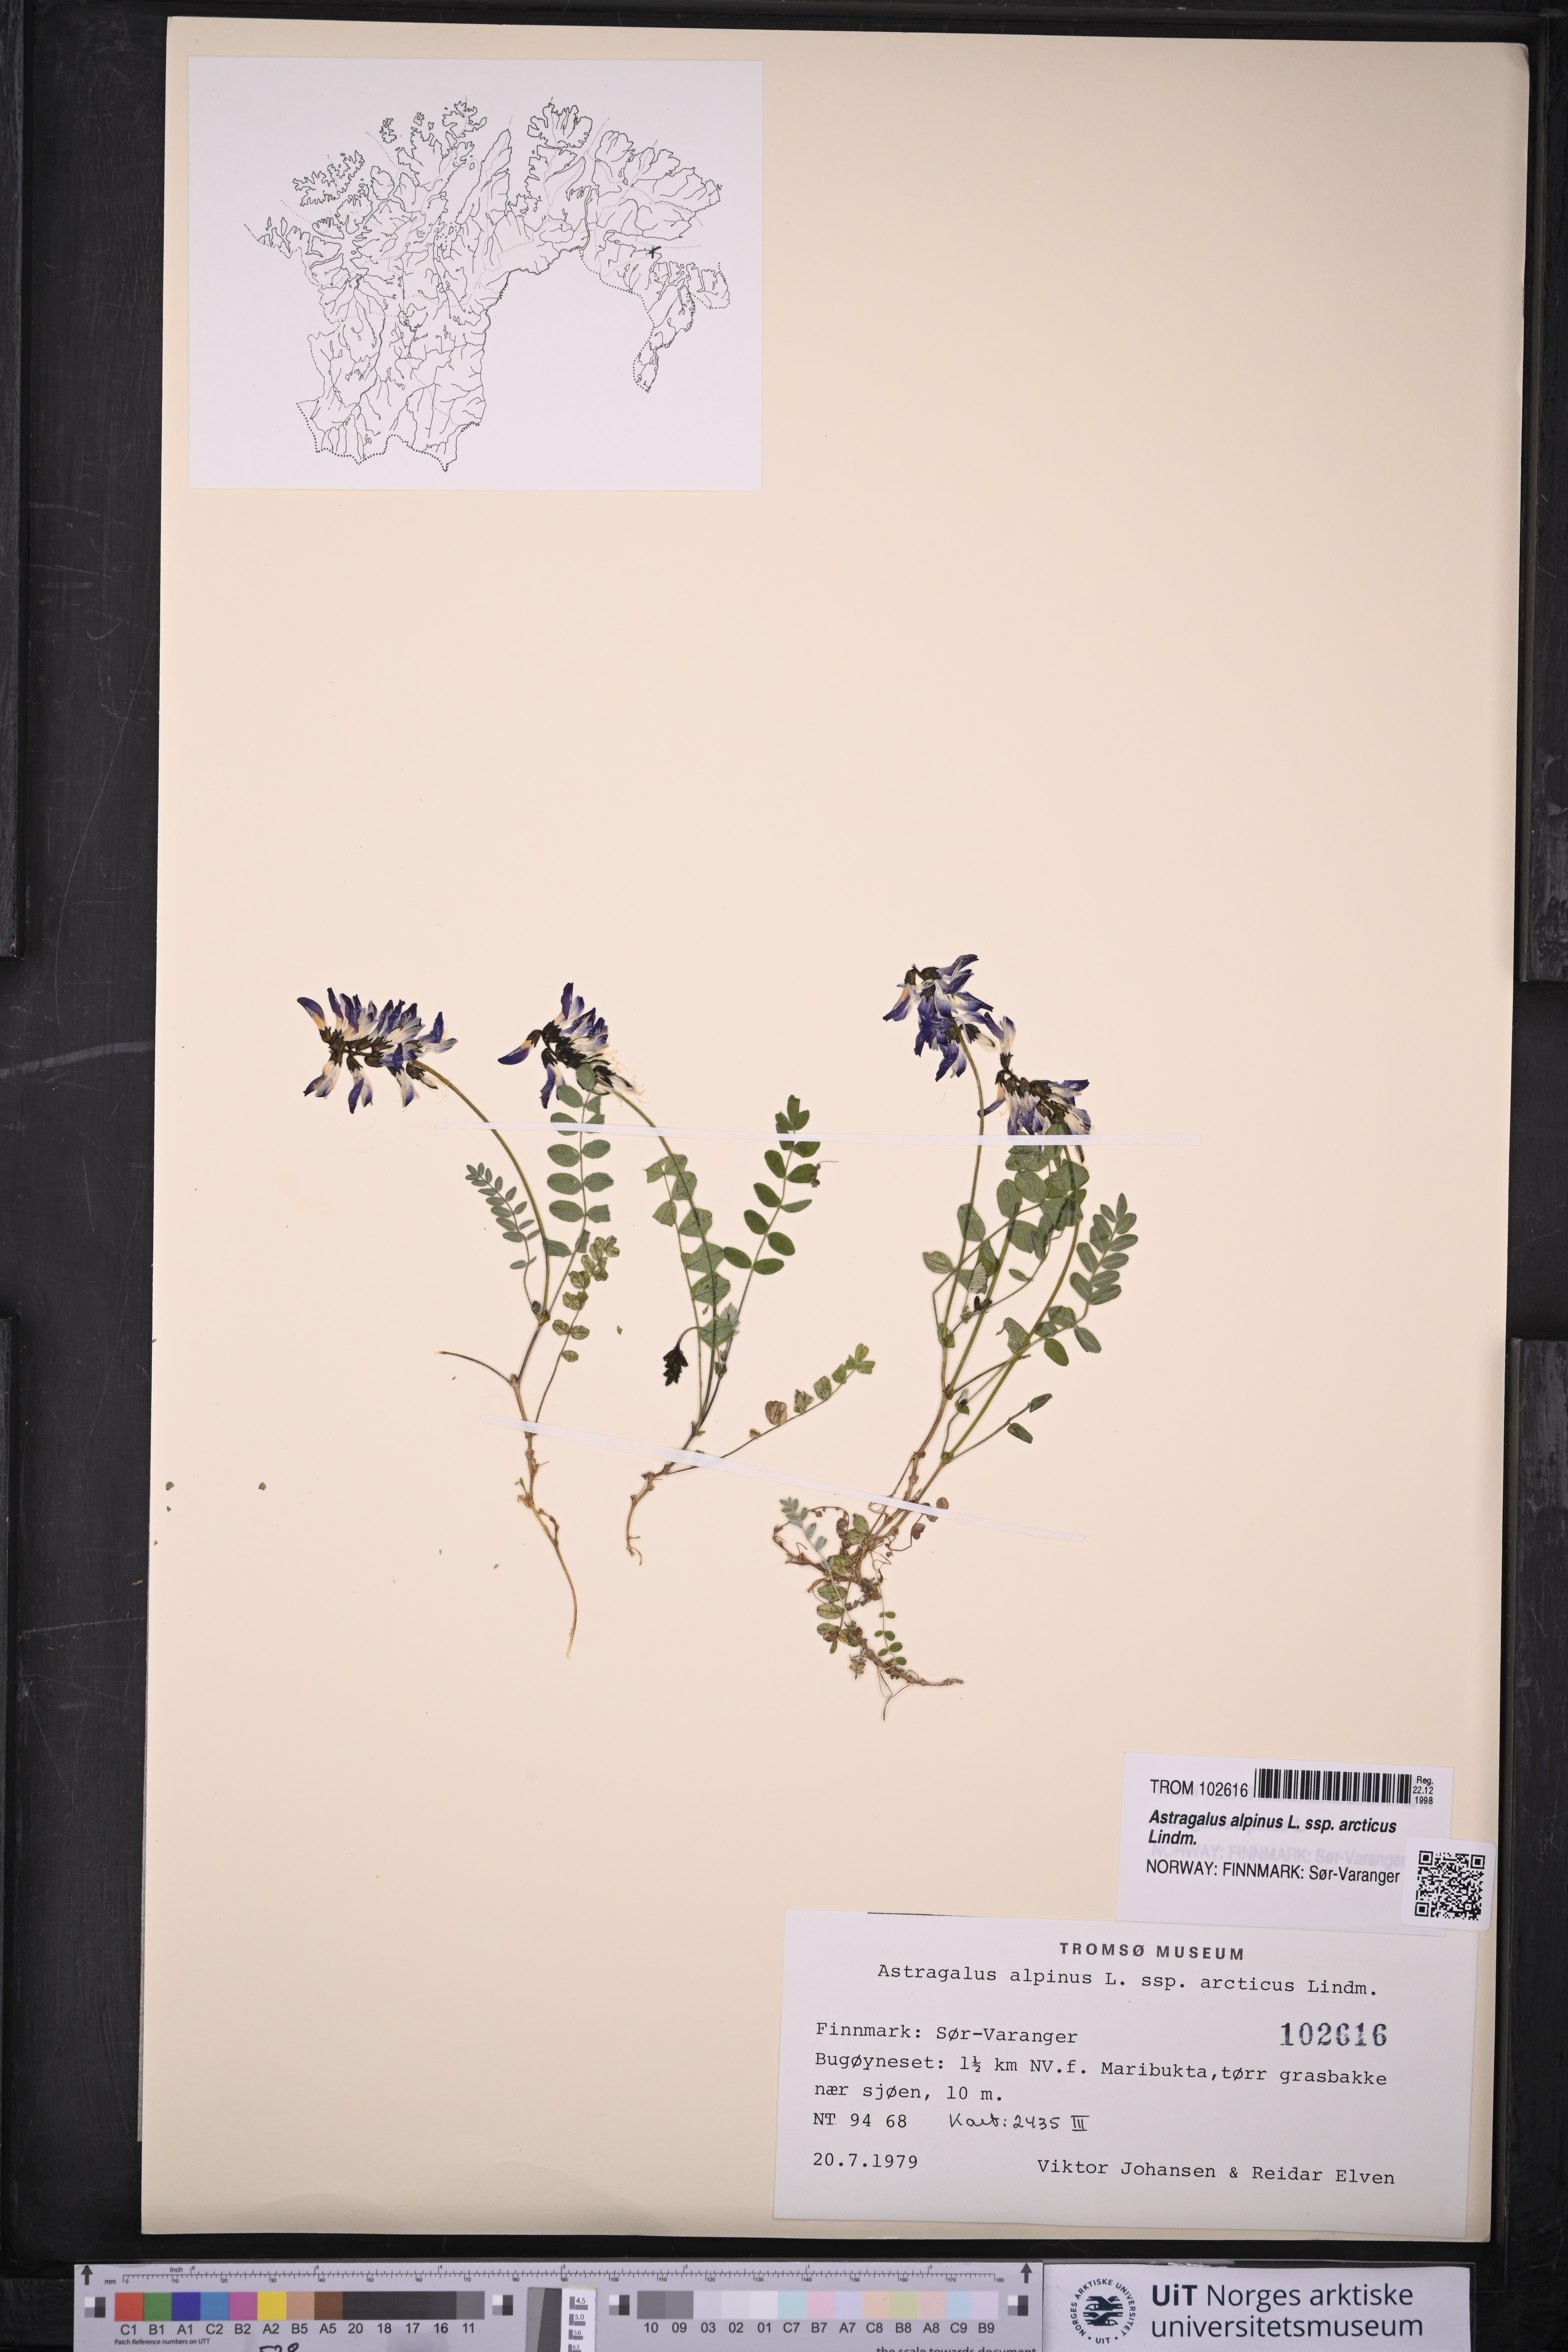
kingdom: Plantae
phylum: Tracheophyta
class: Magnoliopsida
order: Fabales
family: Fabaceae
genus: Astragalus
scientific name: Astragalus norvegicus
